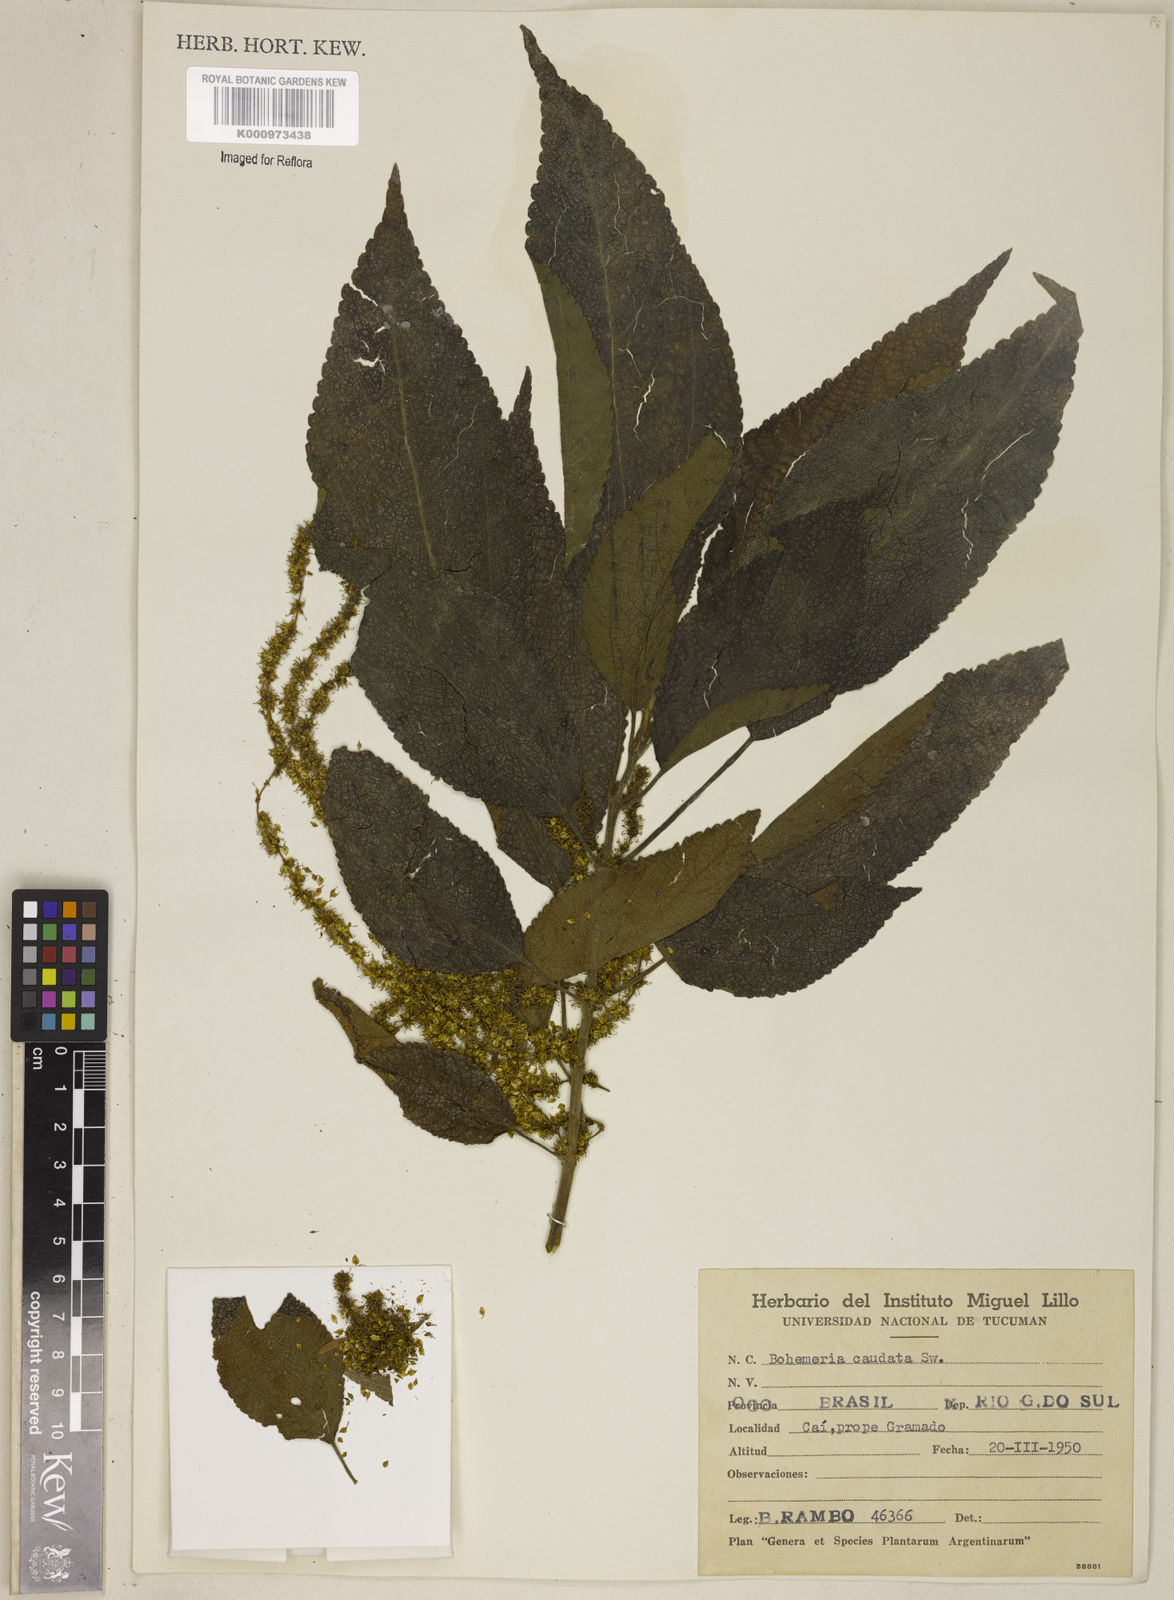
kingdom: Plantae
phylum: Tracheophyta
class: Magnoliopsida
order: Rosales
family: Urticaceae
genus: Boehmeria
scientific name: Boehmeria caudata
